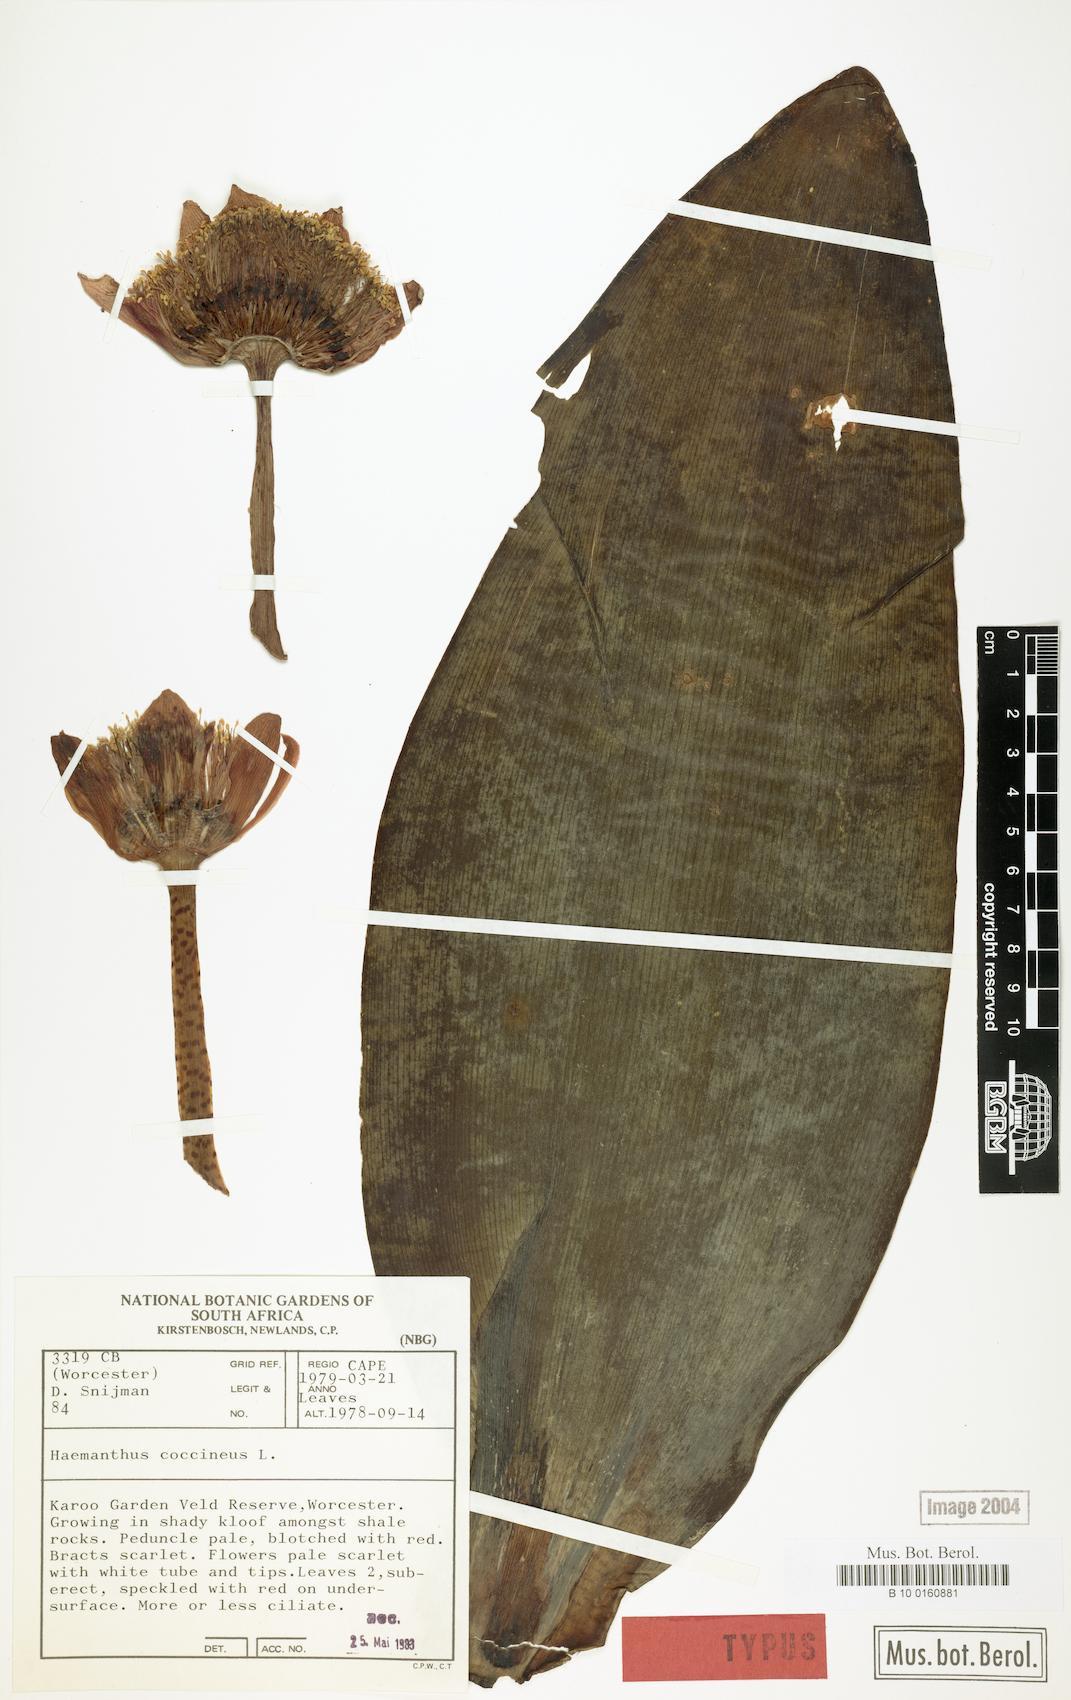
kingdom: Plantae
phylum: Tracheophyta
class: Liliopsida
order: Asparagales
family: Amaryllidaceae
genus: Haemanthus
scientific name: Haemanthus coccineus
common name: Cape-tulip
